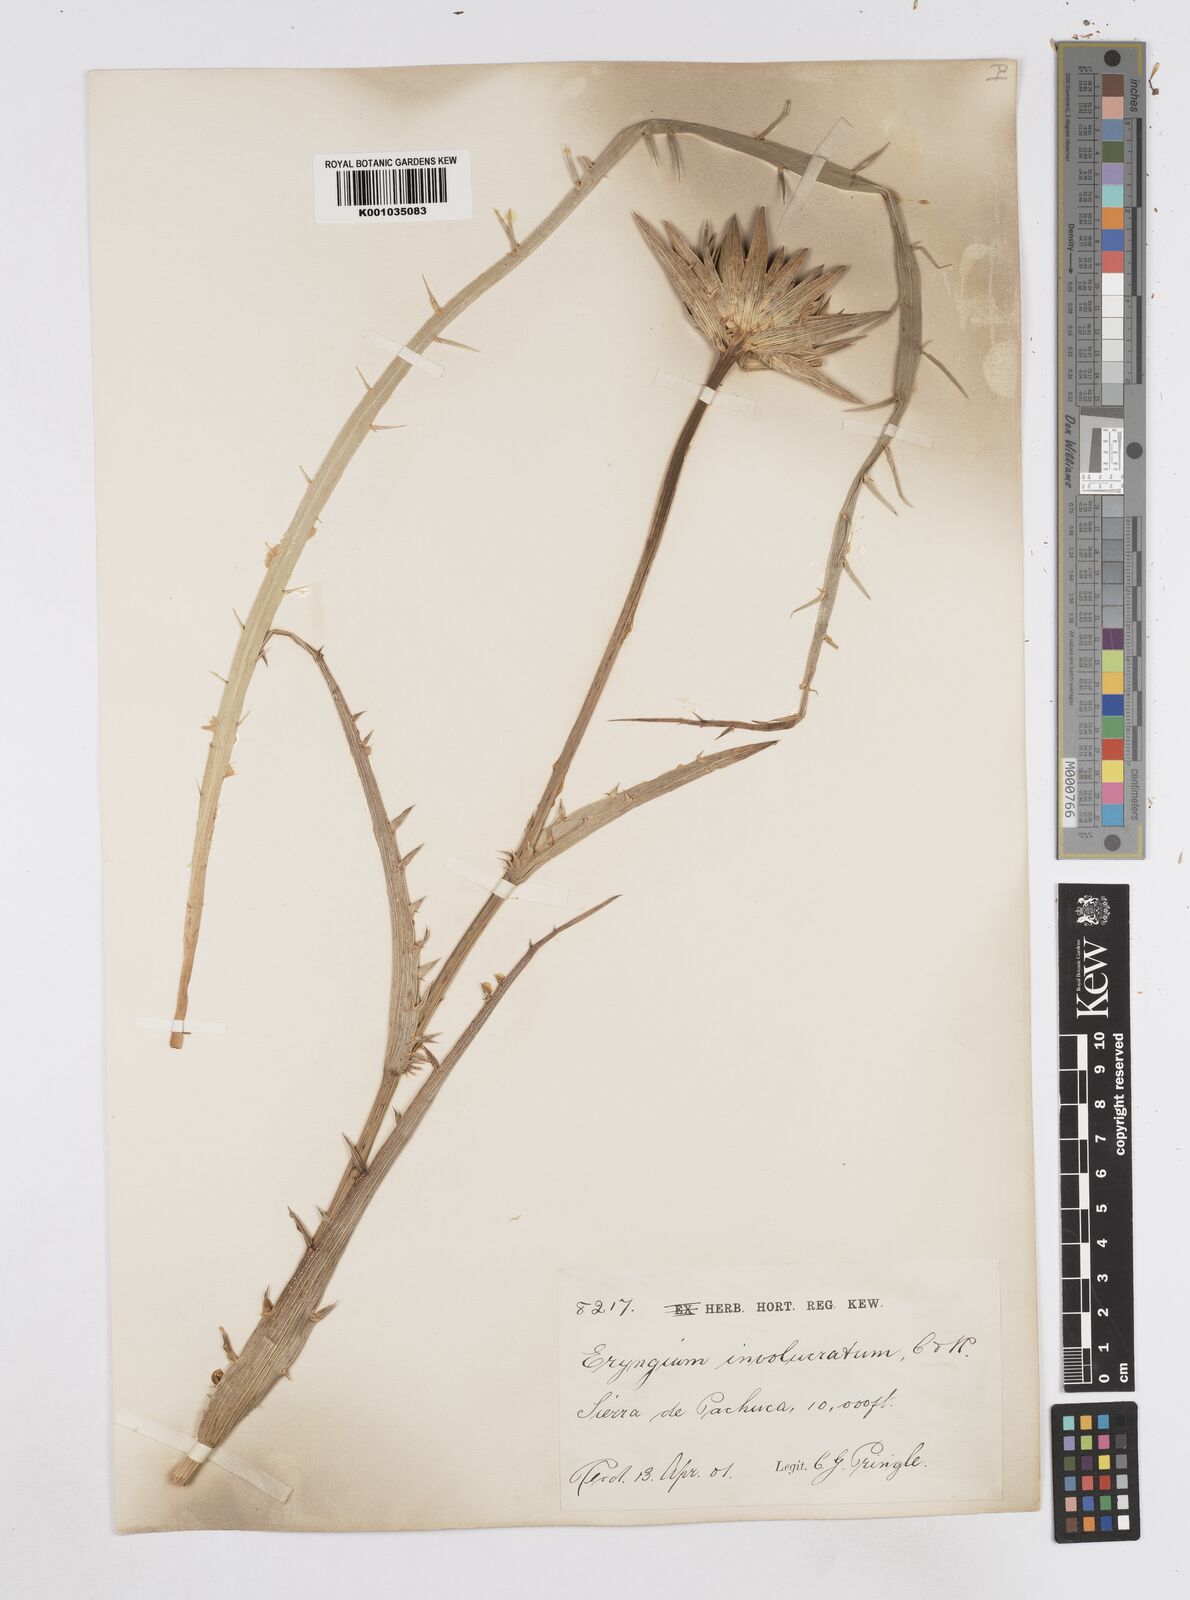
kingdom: Plantae
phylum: Tracheophyta
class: Magnoliopsida
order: Apiales
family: Apiaceae
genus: Eryngium
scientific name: Eryngium monocephalum
